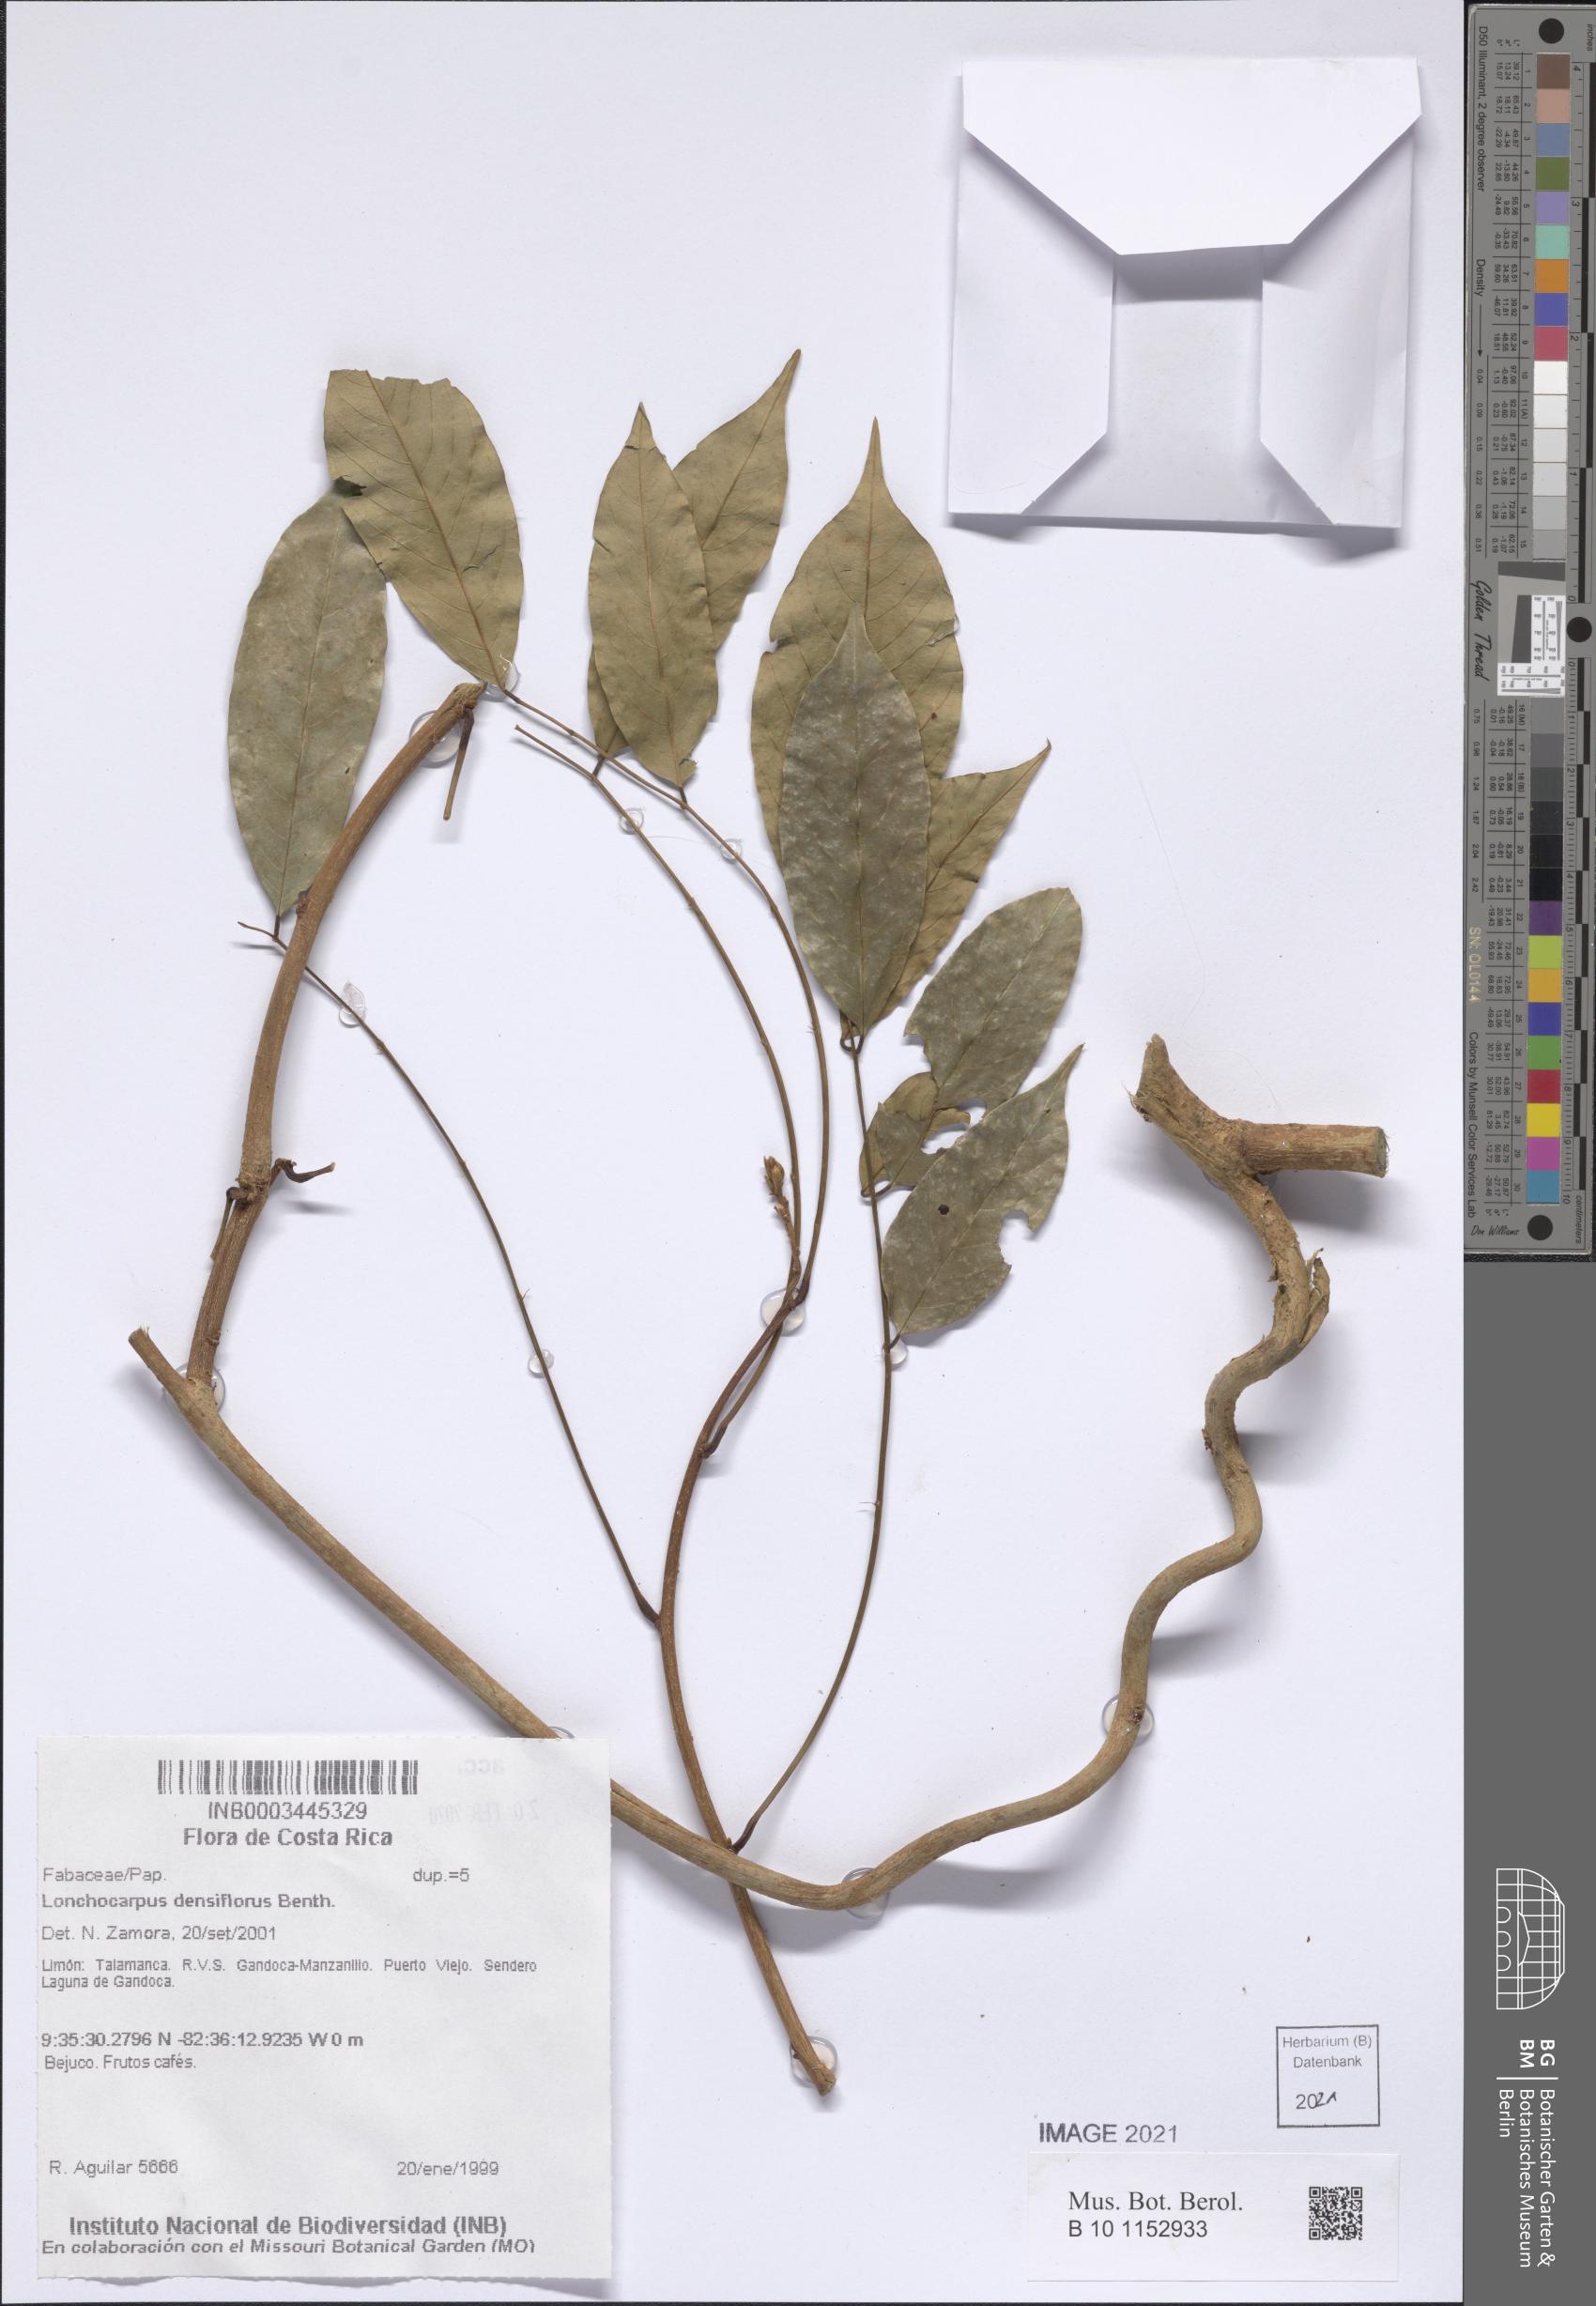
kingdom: Plantae
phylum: Tracheophyta
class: Magnoliopsida
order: Fabales
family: Fabaceae
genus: Deguelia
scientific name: Deguelia densiflora
